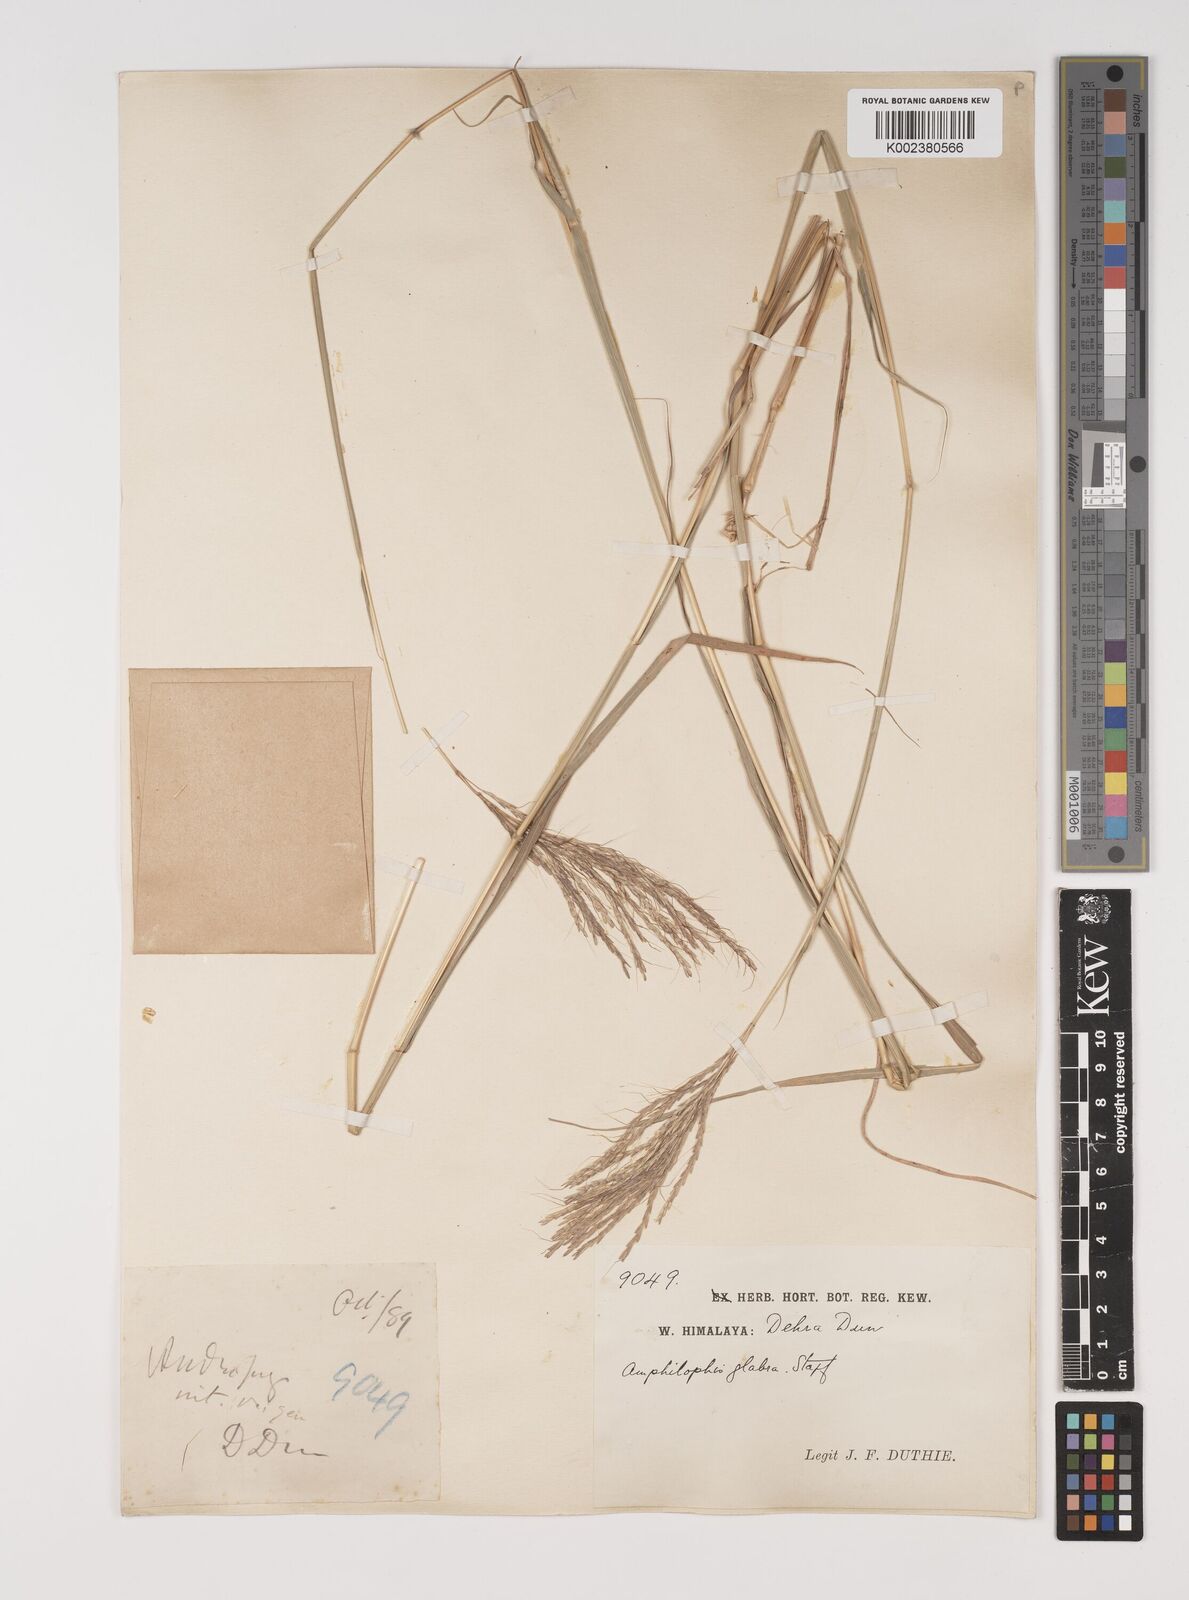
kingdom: Plantae
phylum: Tracheophyta
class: Liliopsida
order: Poales
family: Poaceae
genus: Bothriochloa
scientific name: Bothriochloa bladhii
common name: Caucasian bluestem
